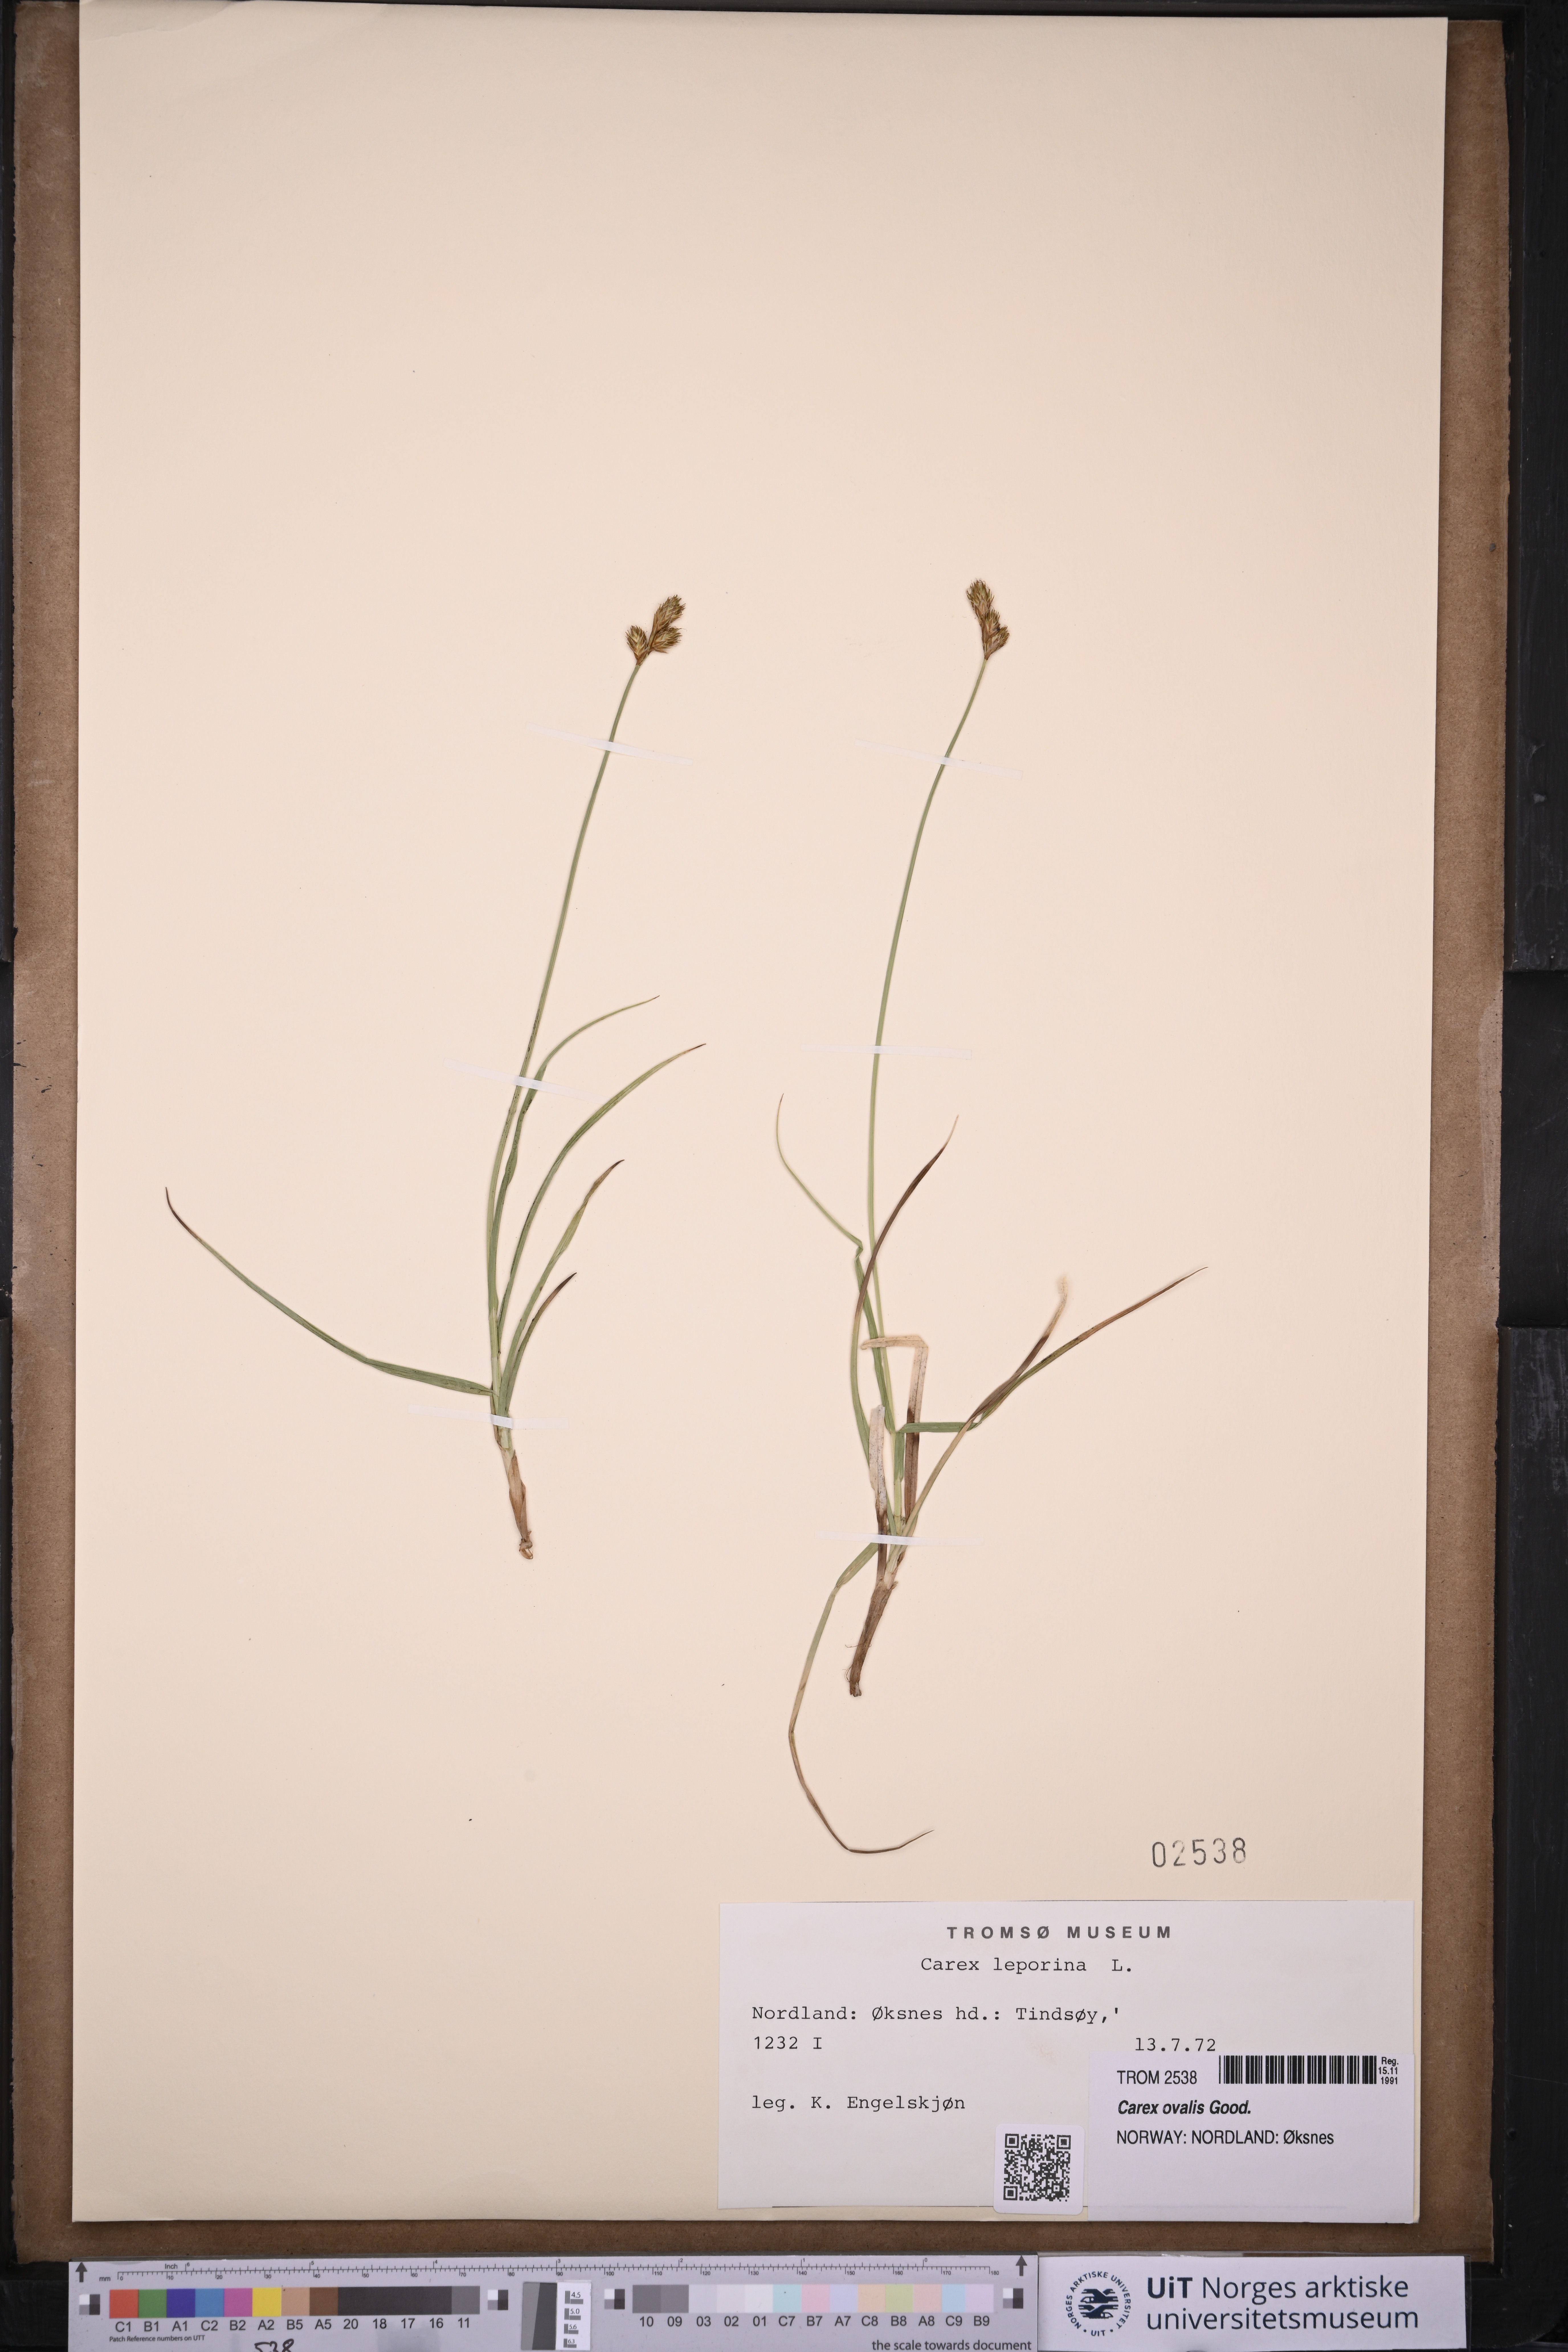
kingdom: Plantae
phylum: Tracheophyta
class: Liliopsida
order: Poales
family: Cyperaceae
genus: Carex
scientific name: Carex leporina
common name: Oval sedge
